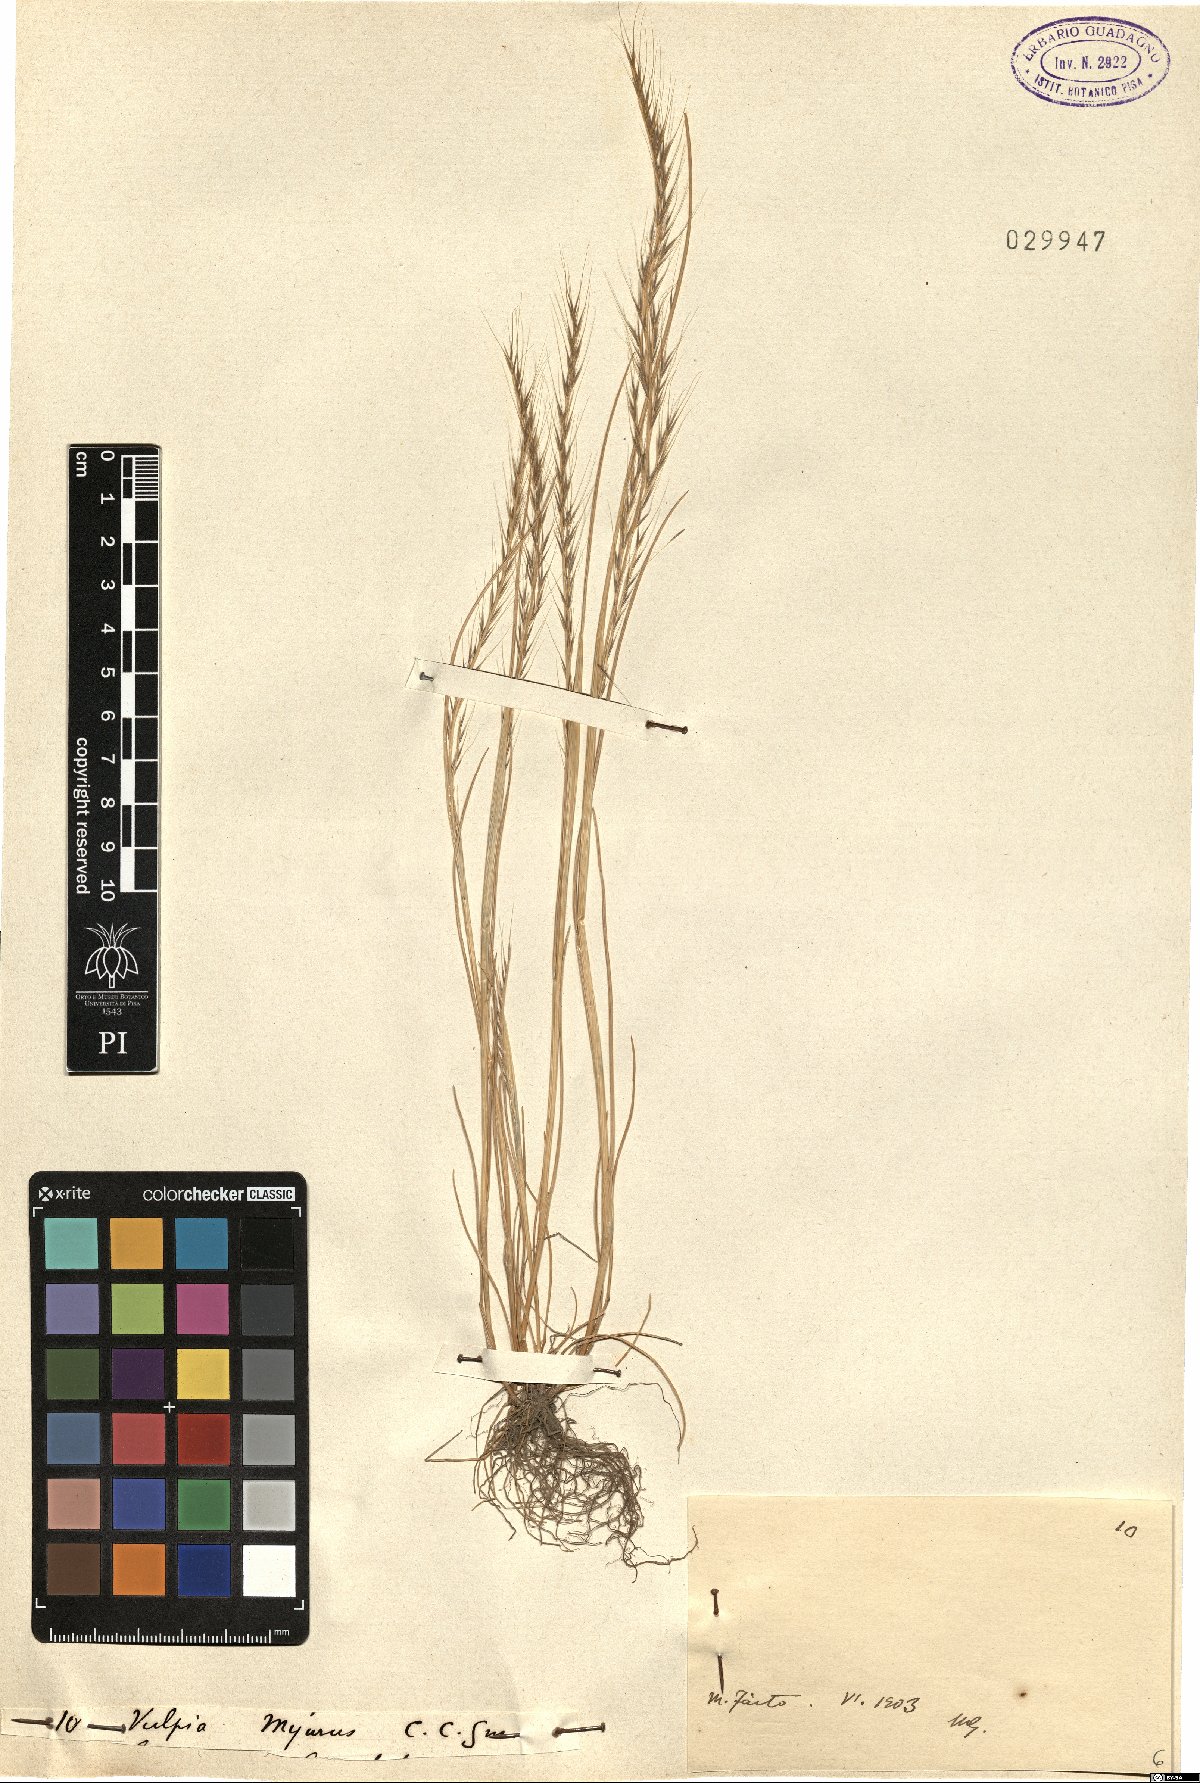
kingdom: Plantae
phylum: Tracheophyta
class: Liliopsida
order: Poales
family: Poaceae
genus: Festuca
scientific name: Festuca myuros
